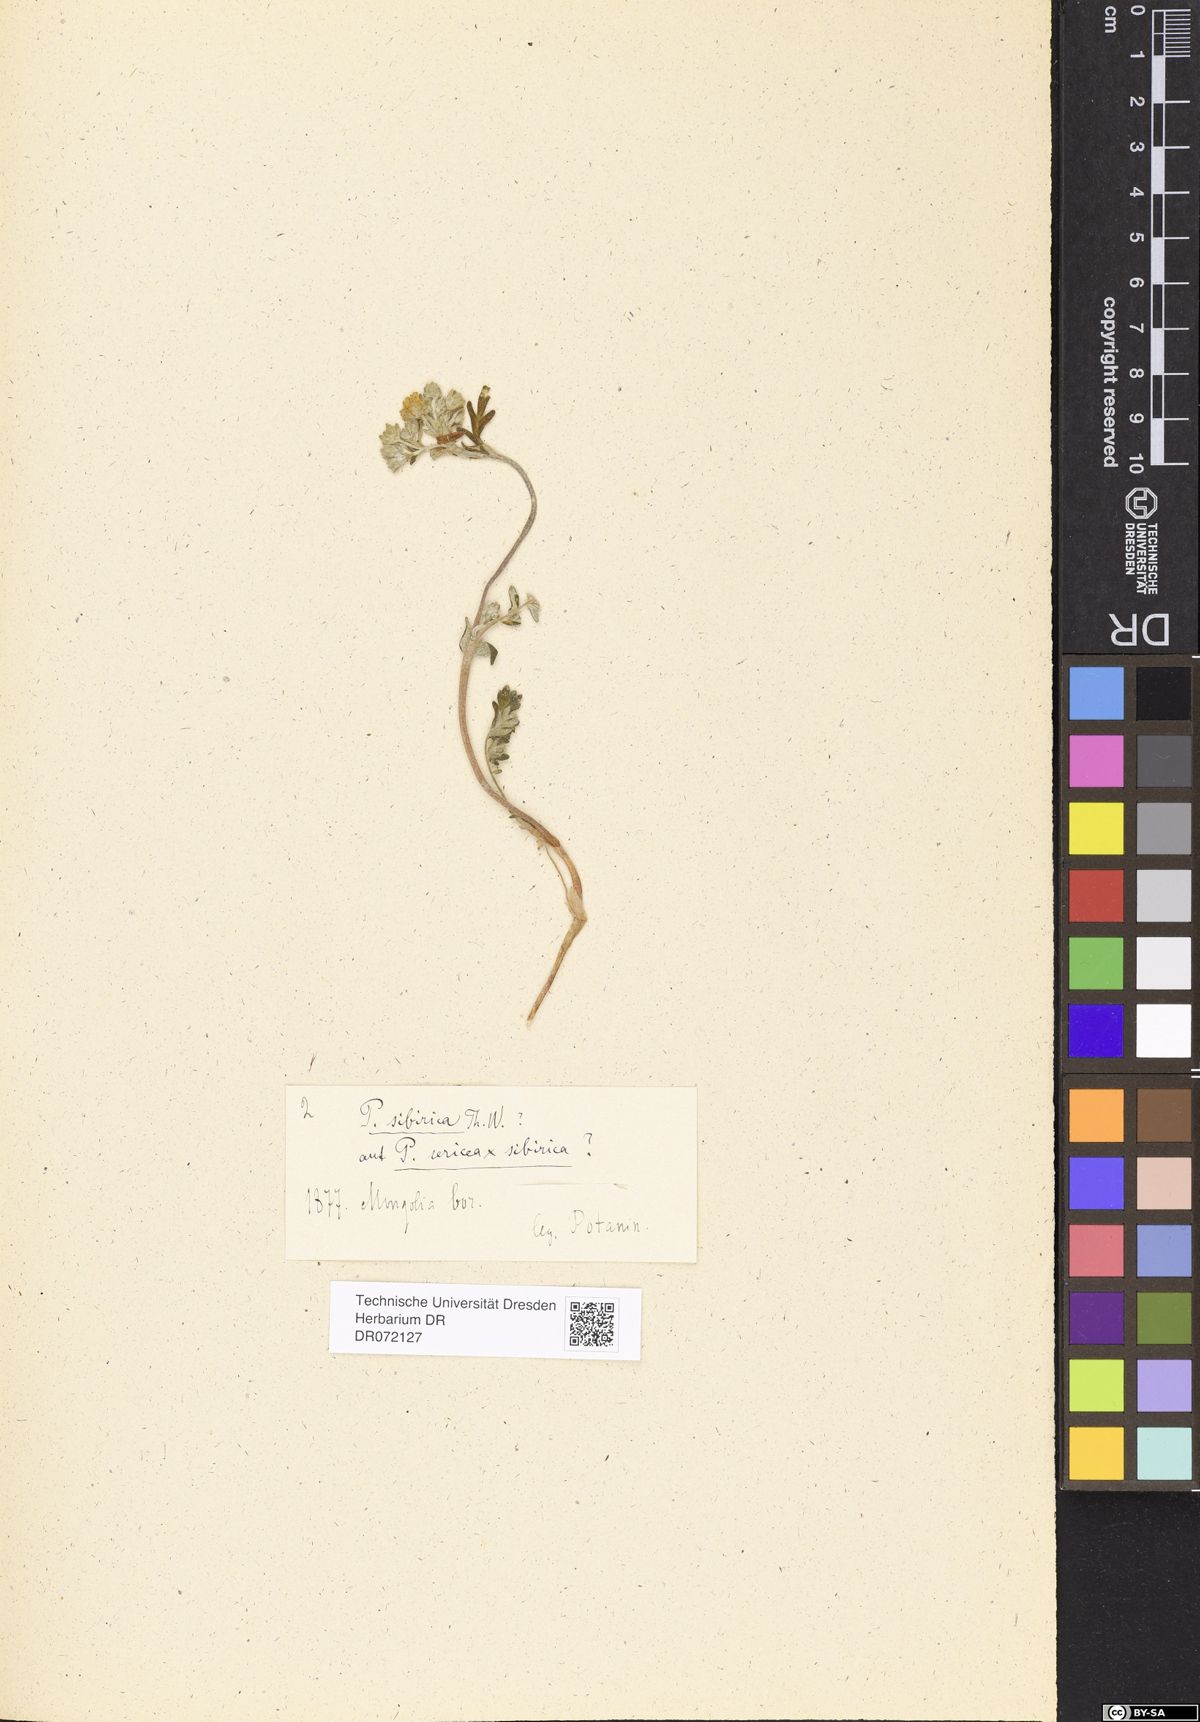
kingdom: Plantae
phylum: Tracheophyta
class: Magnoliopsida
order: Rosales
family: Rosaceae
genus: Potentilla
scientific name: Potentilla
